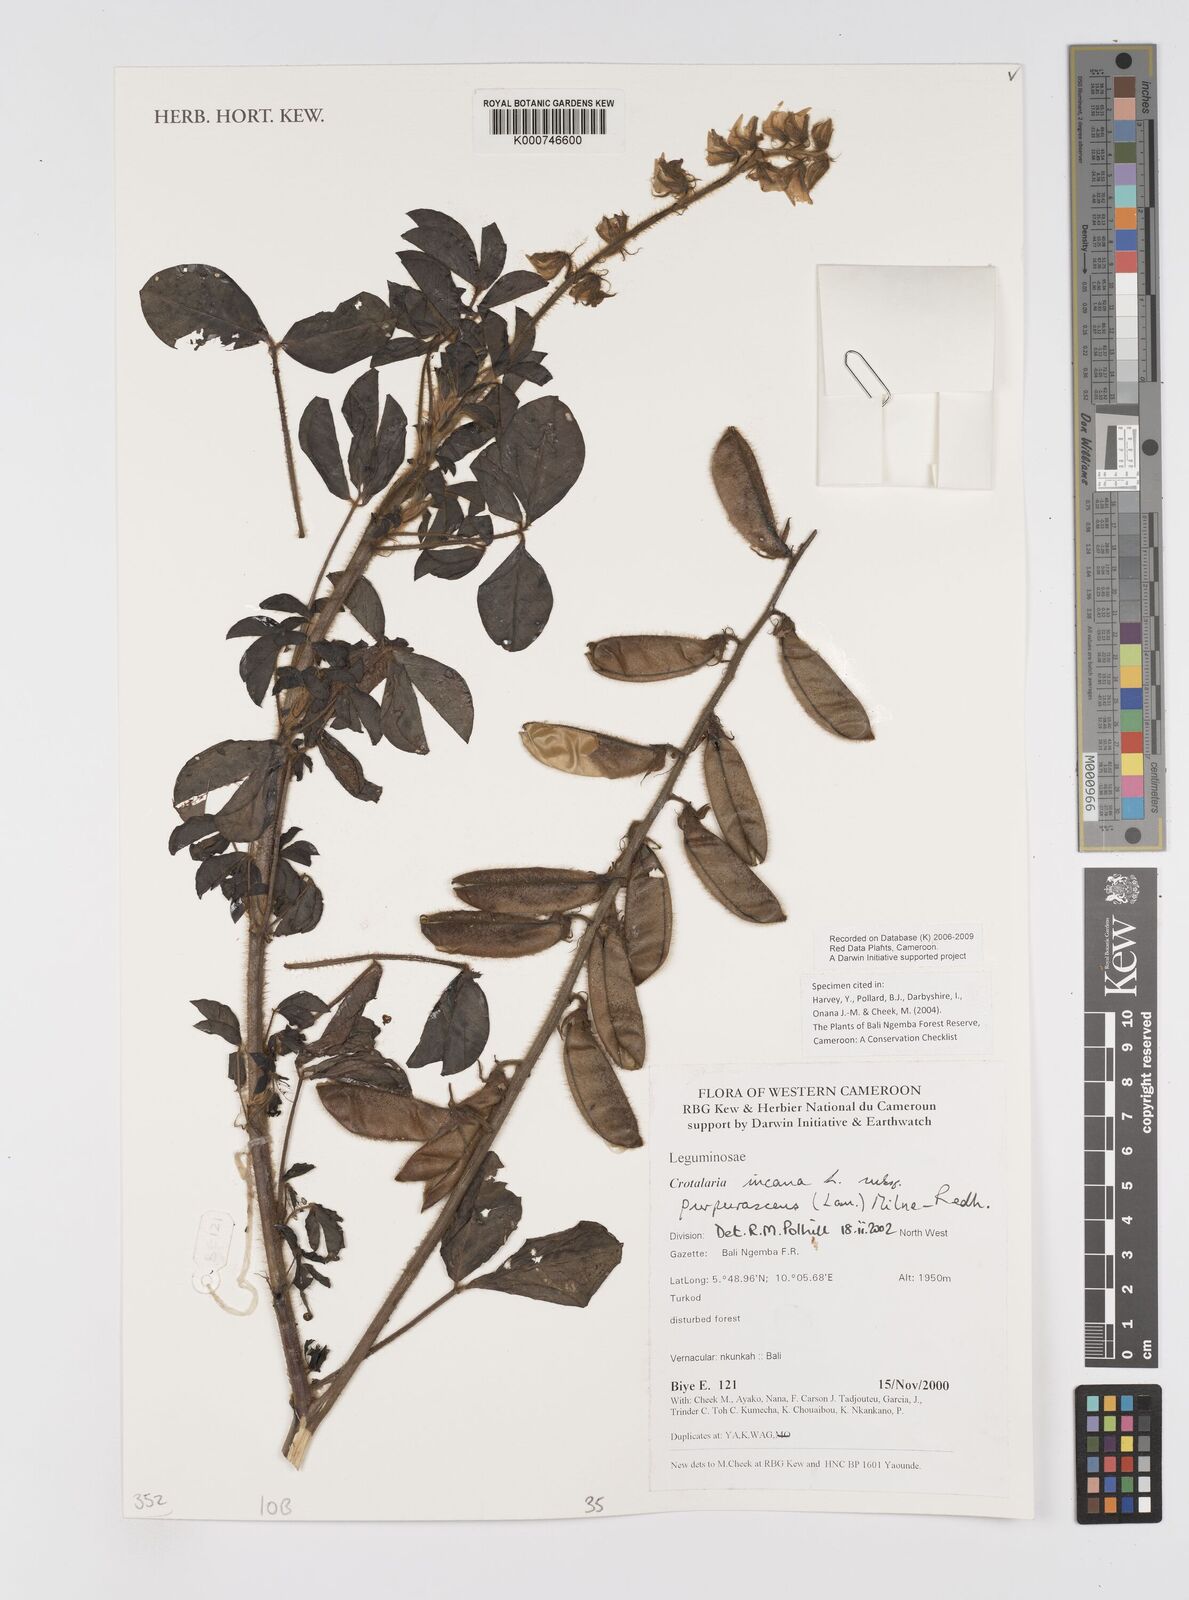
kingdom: Plantae
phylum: Tracheophyta
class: Magnoliopsida
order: Fabales
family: Fabaceae
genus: Crotalaria
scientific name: Crotalaria incana
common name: Shakeshake
